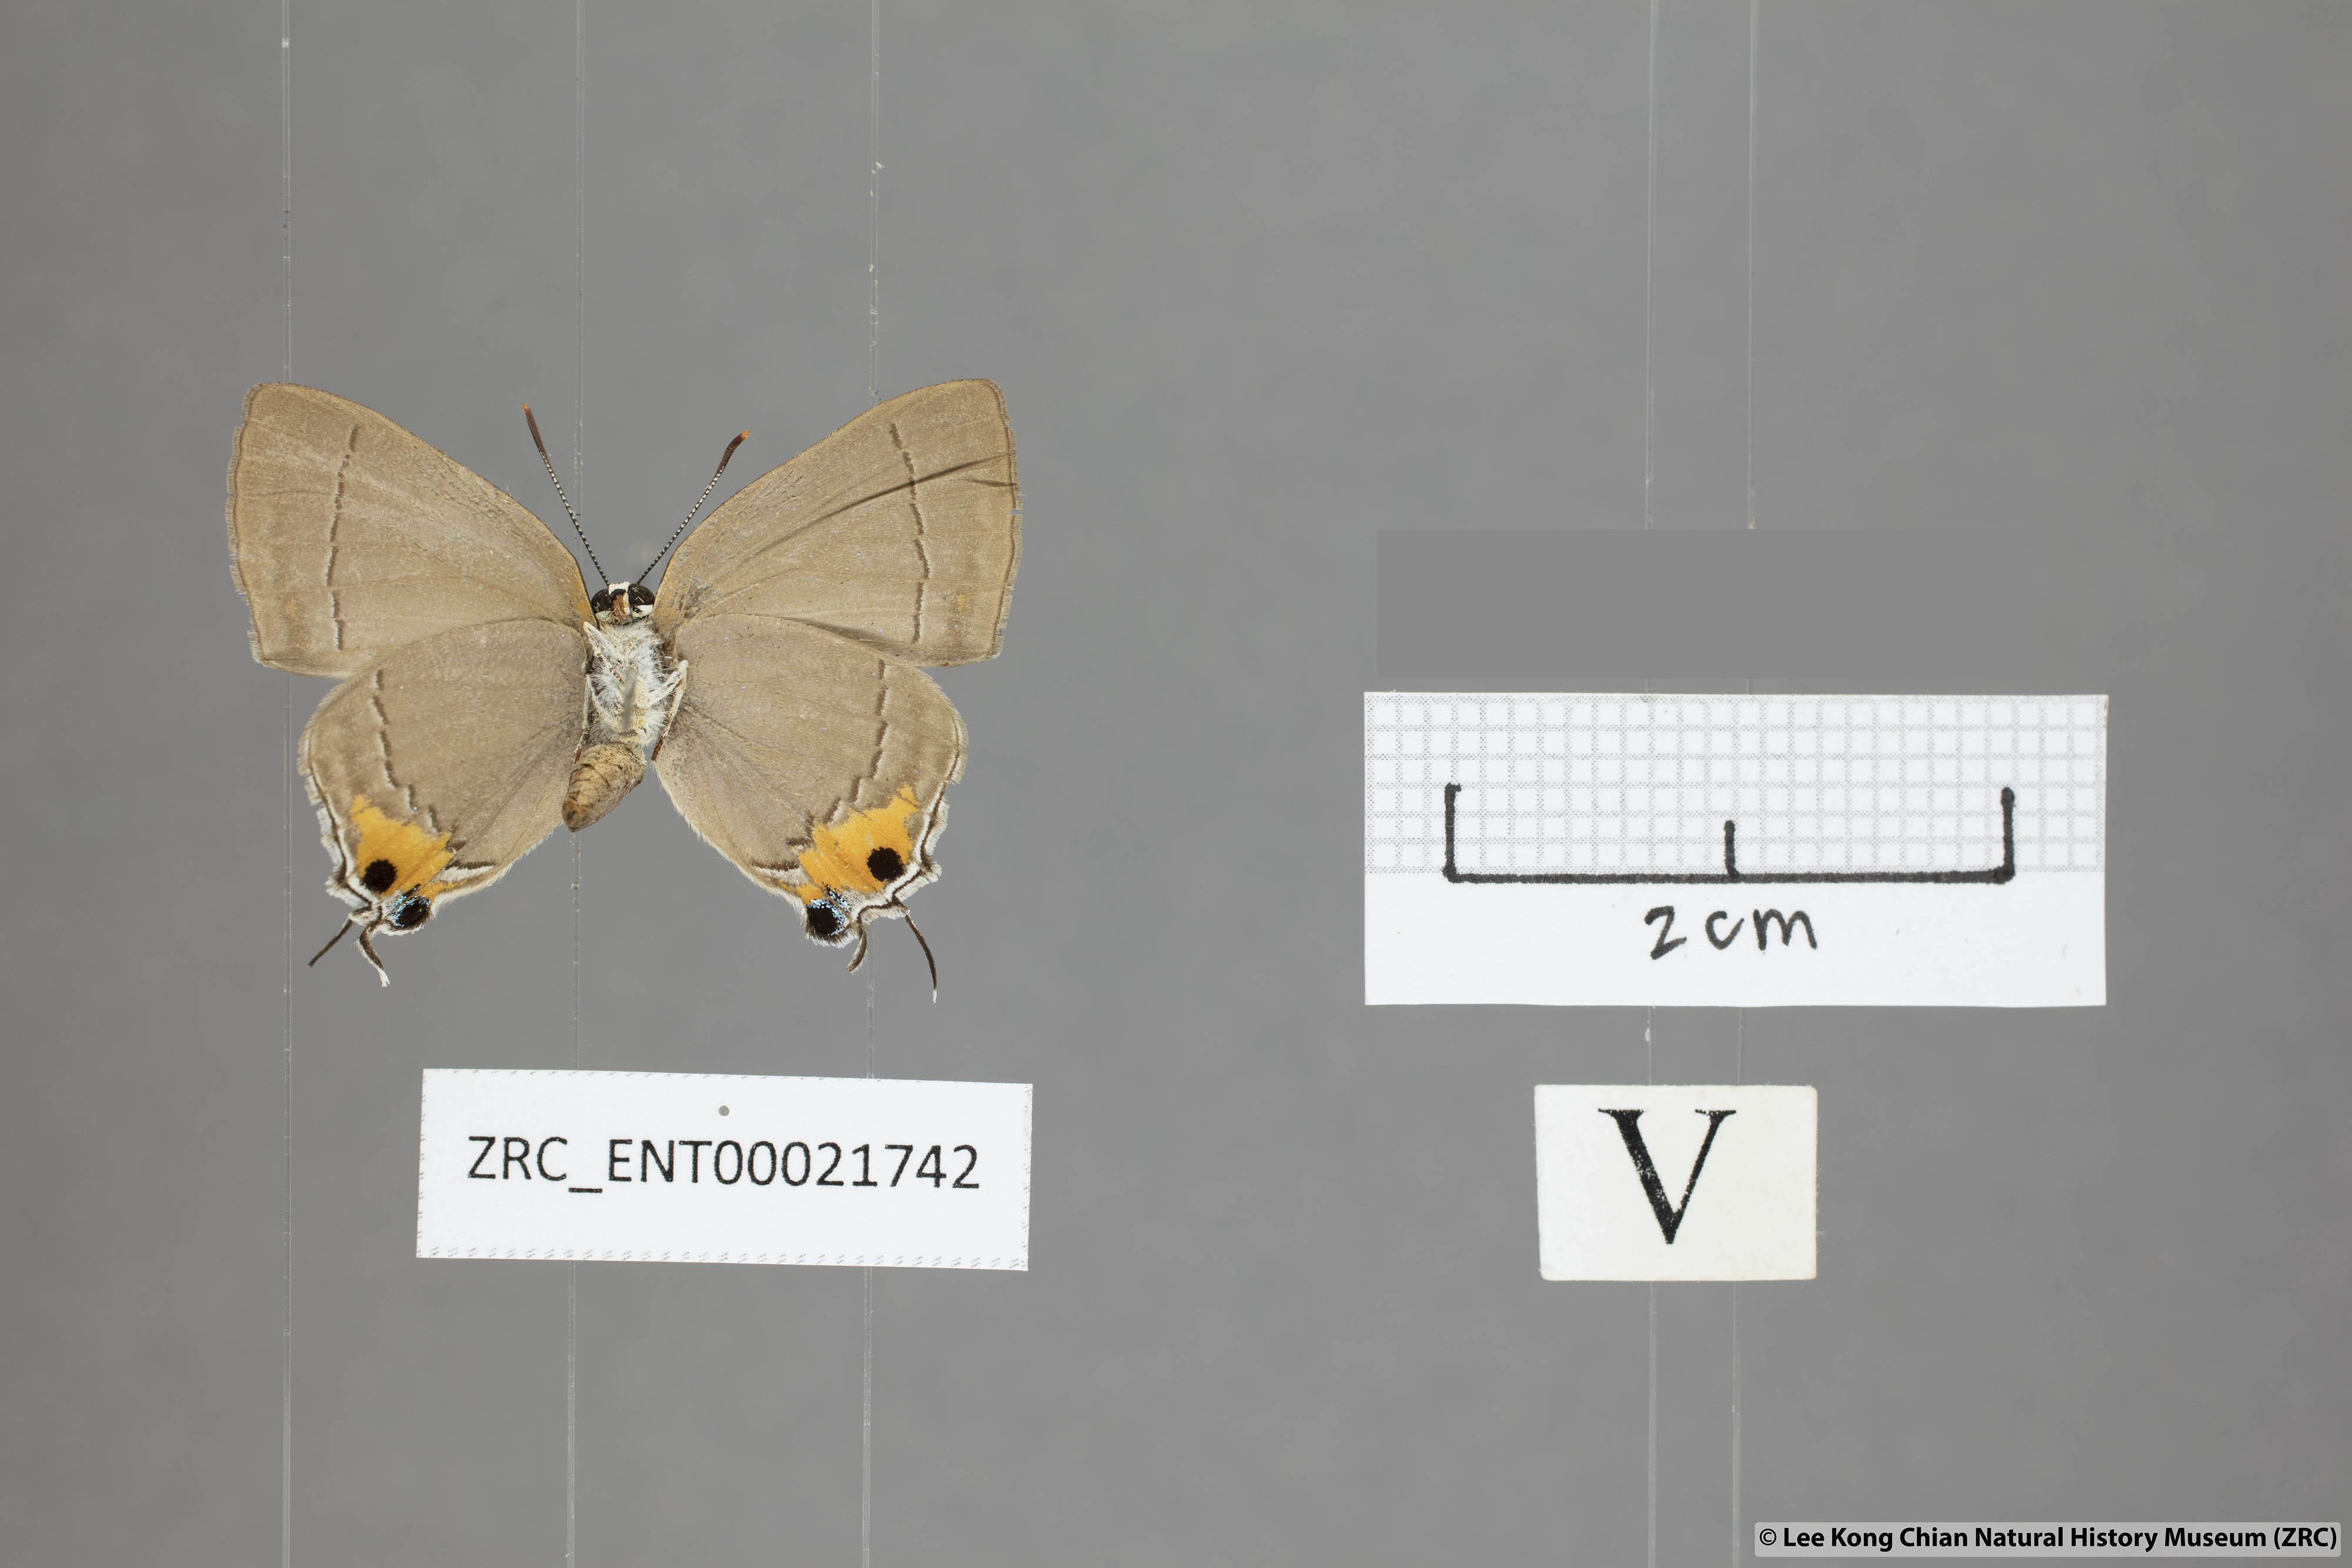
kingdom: Animalia
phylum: Arthropoda
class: Insecta
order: Lepidoptera
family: Lycaenidae
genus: Pratapa
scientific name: Pratapa icetas
